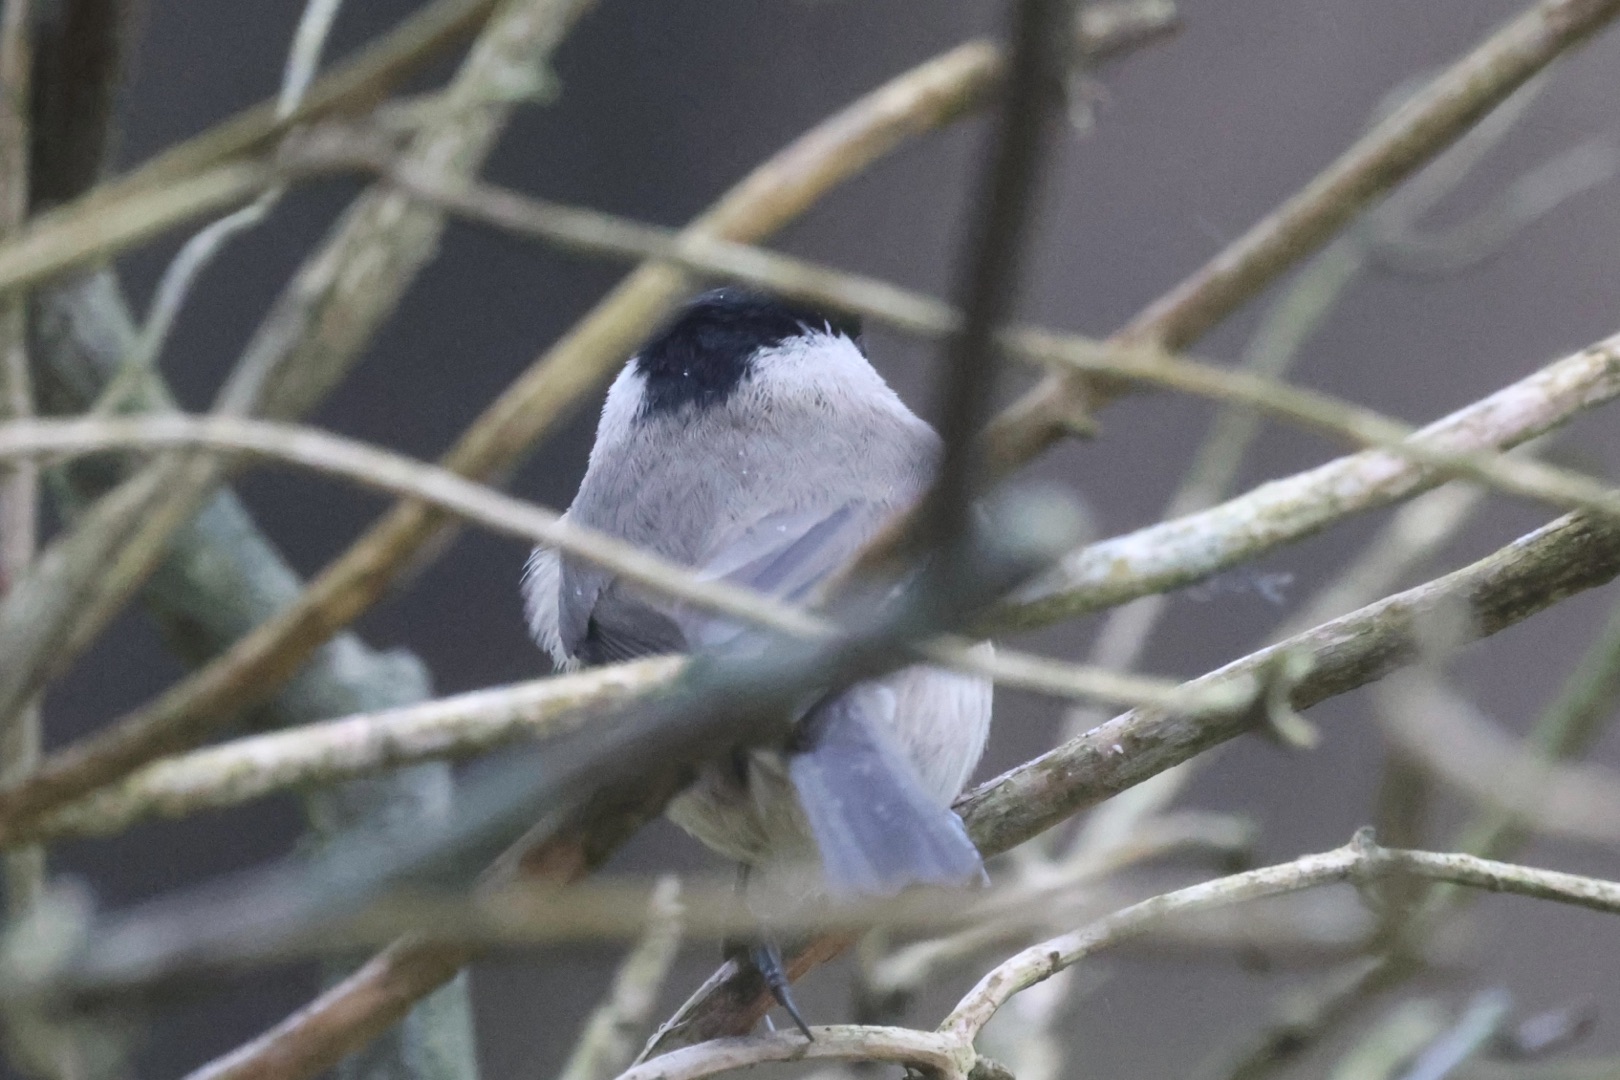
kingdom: Animalia
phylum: Chordata
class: Aves
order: Passeriformes
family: Paridae
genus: Poecile
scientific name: Poecile palustris
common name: Sumpmejse
